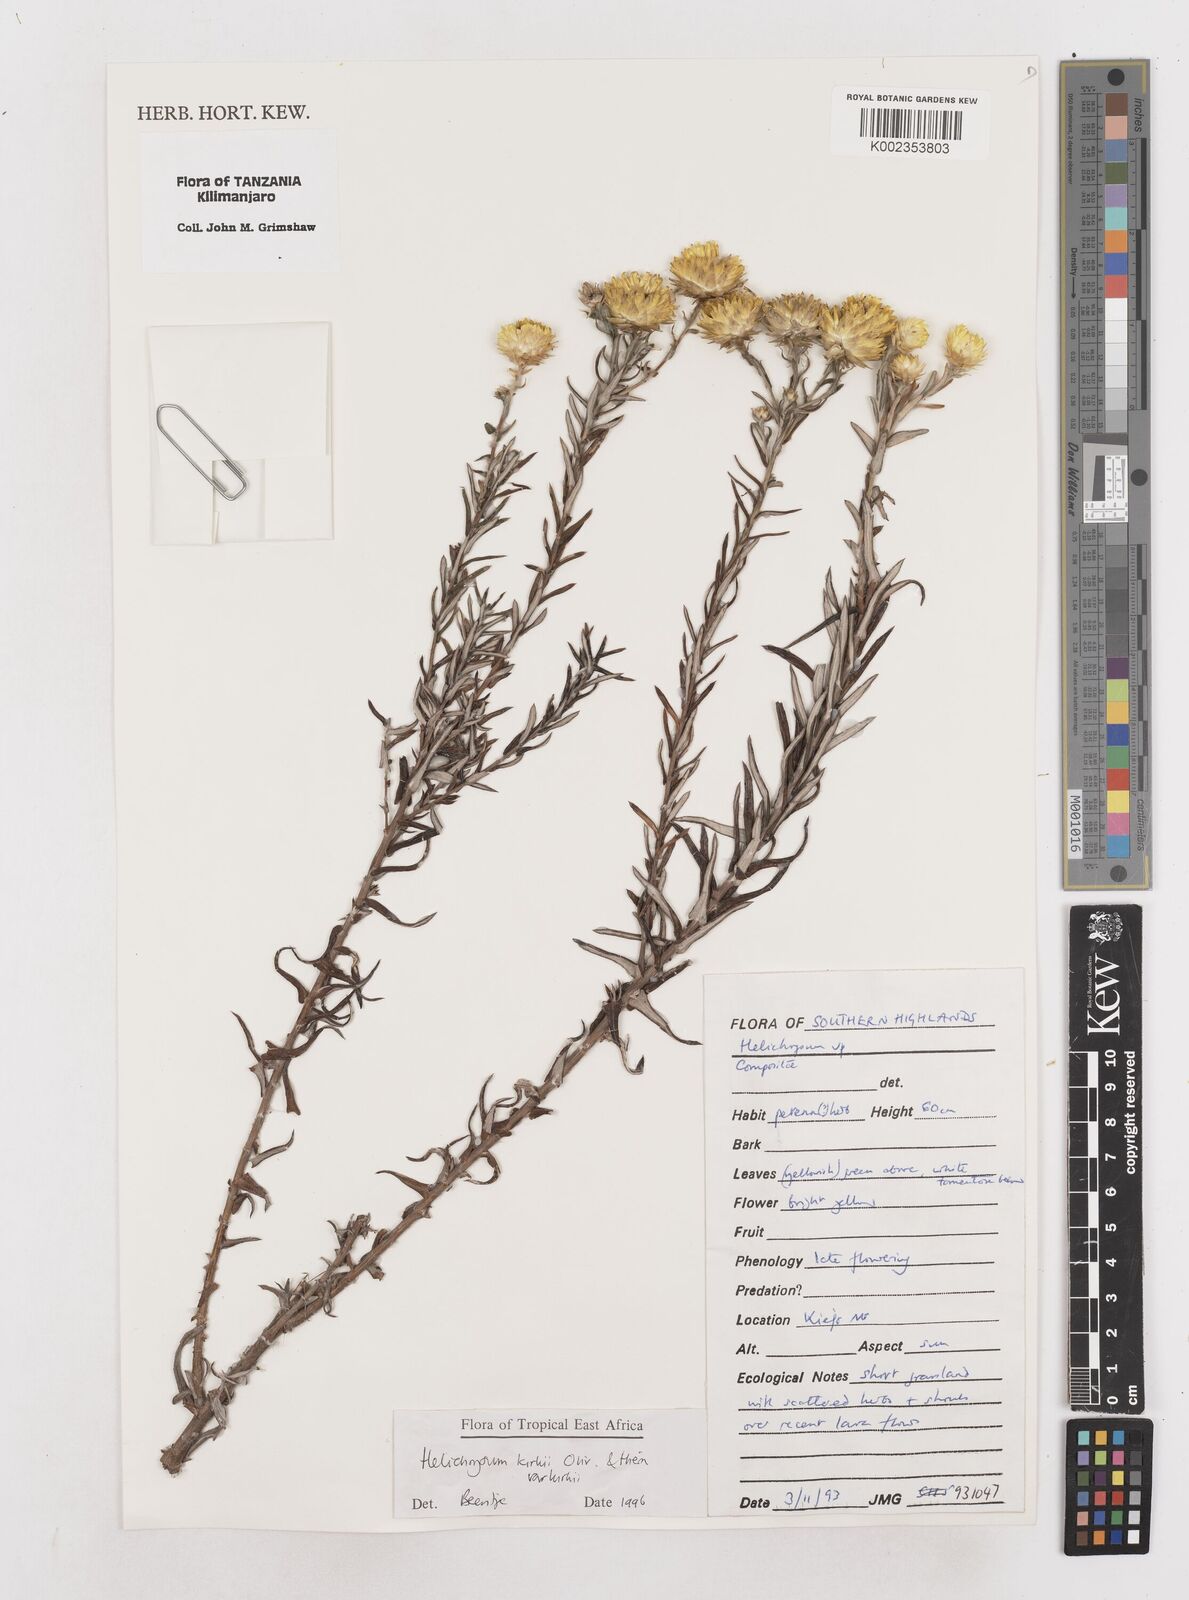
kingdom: Plantae
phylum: Tracheophyta
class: Magnoliopsida
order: Asterales
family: Asteraceae
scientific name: Asteraceae
